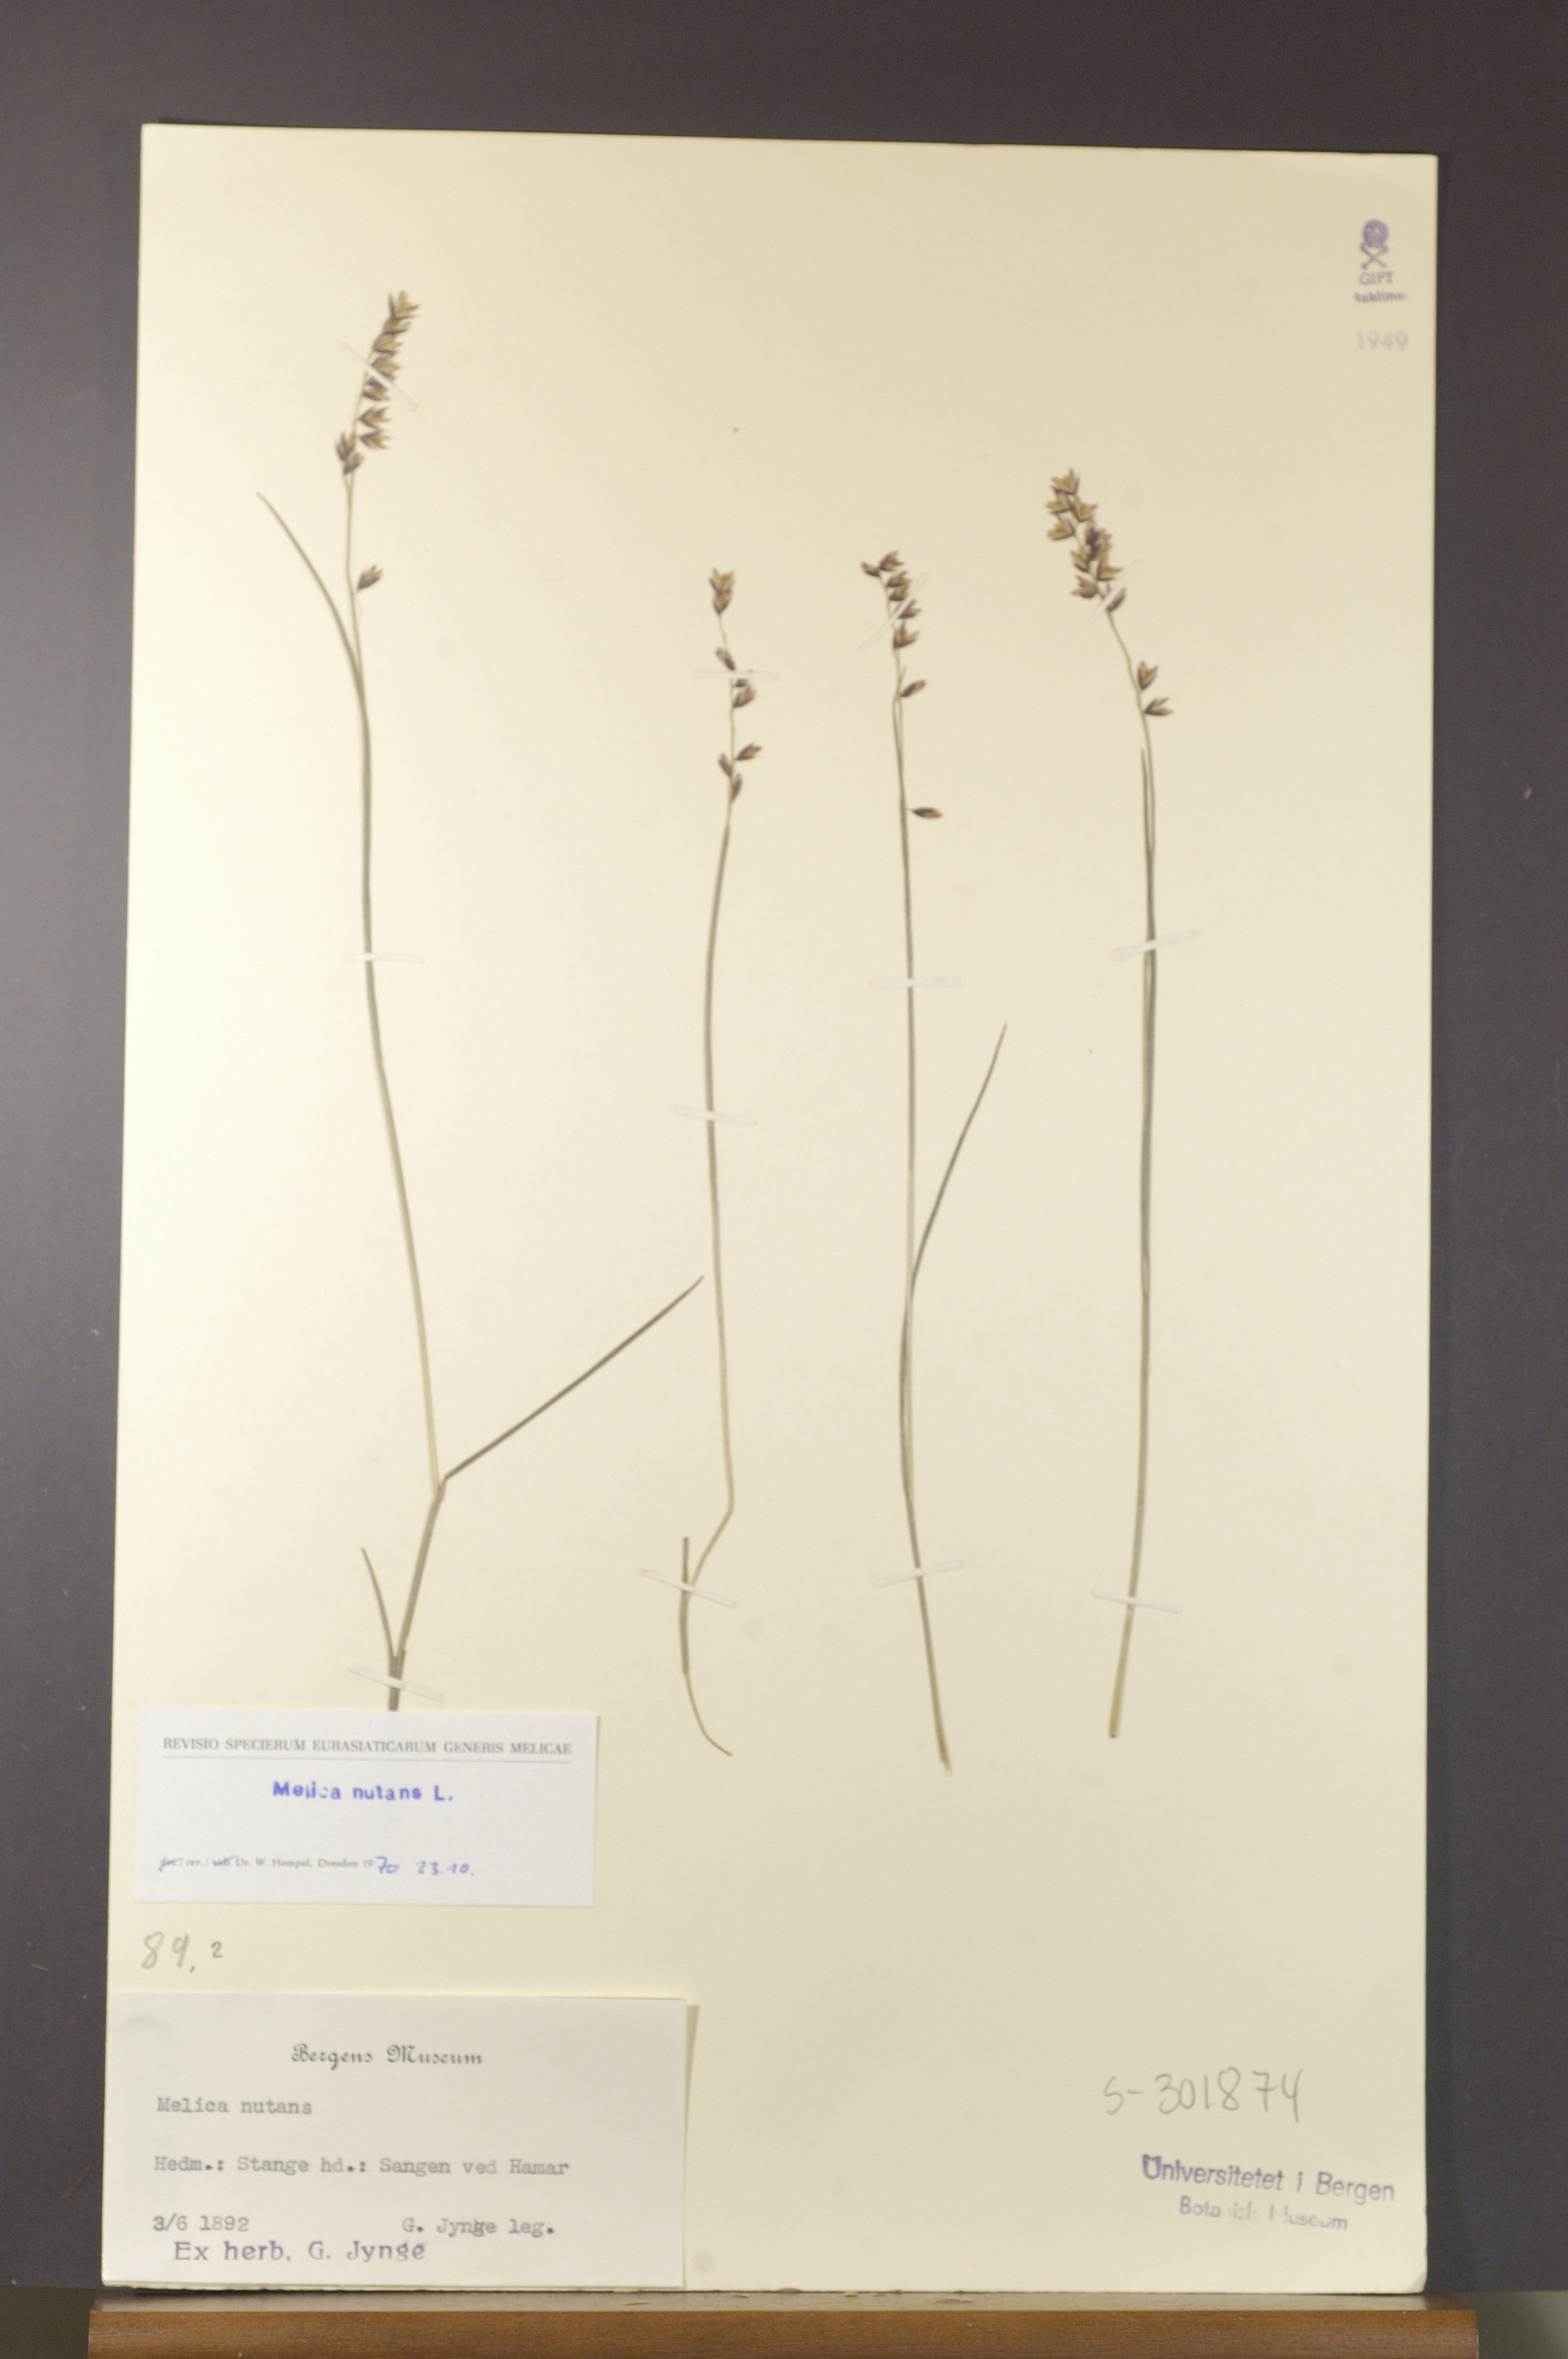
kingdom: Plantae
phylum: Tracheophyta
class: Liliopsida
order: Poales
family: Poaceae
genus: Melica
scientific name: Melica nutans
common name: Mountain melick
